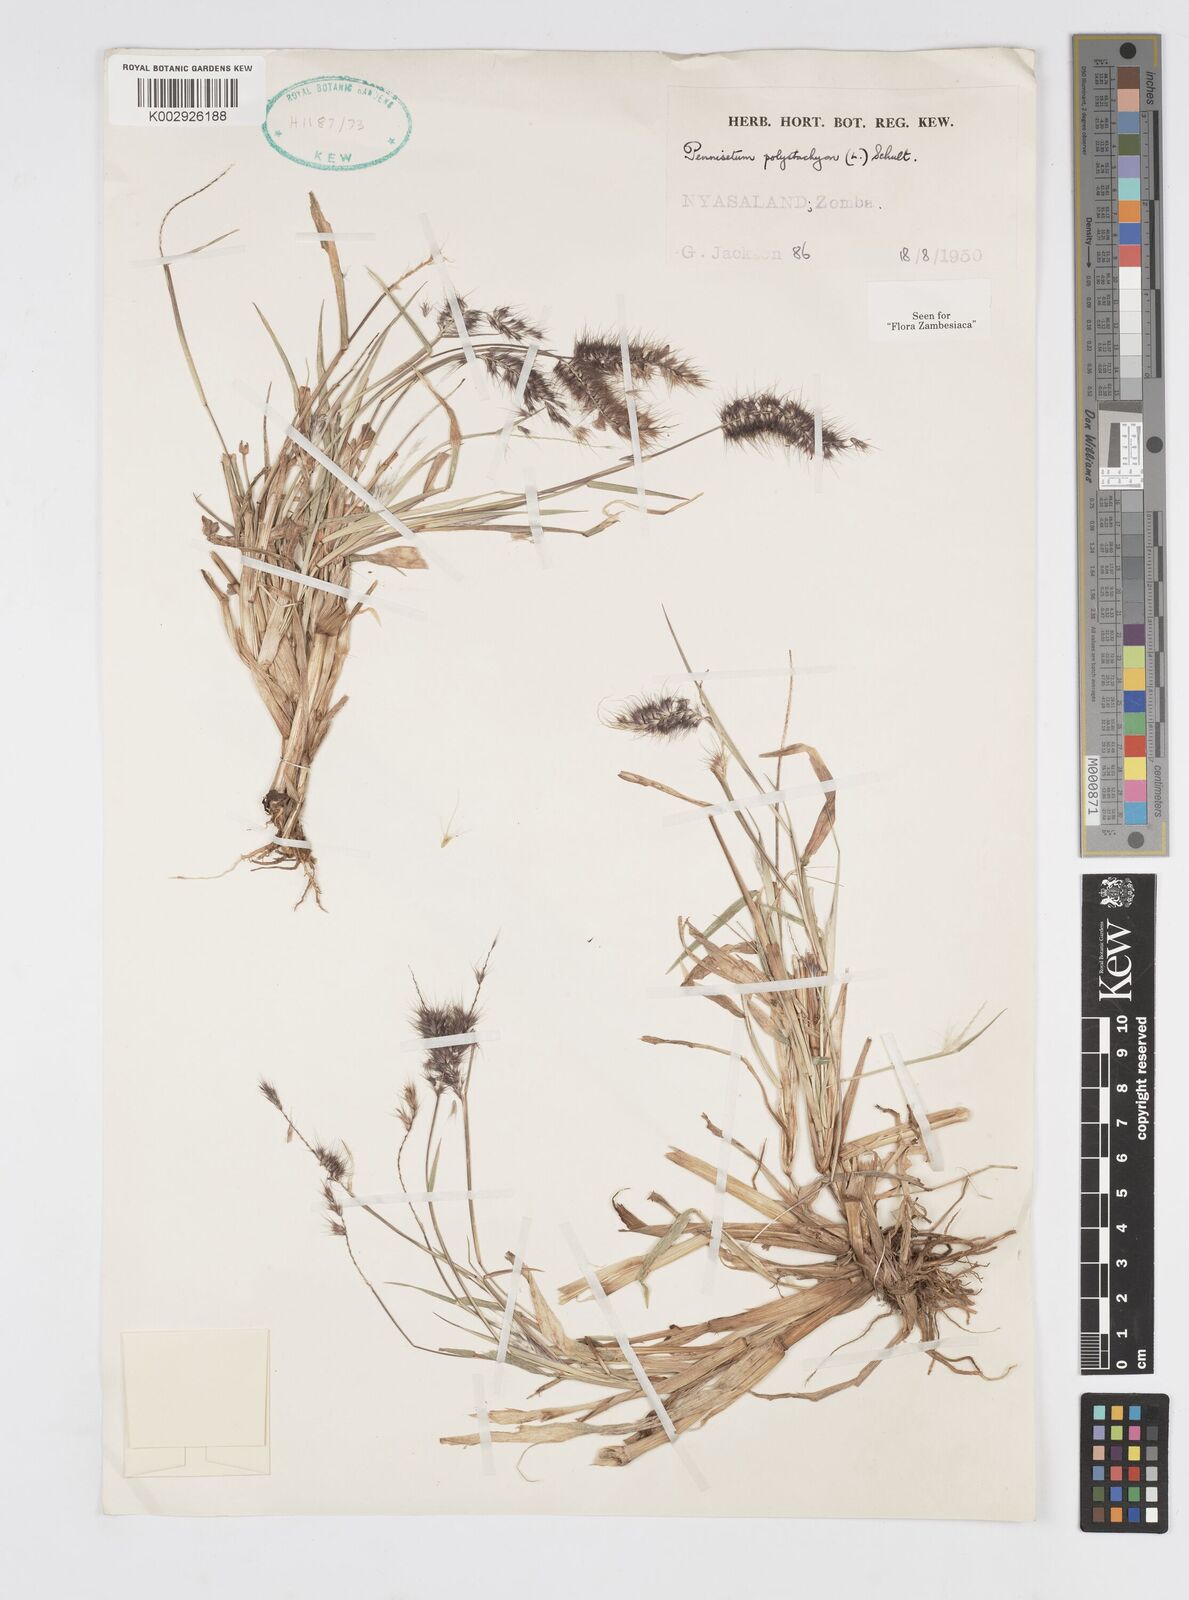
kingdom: Plantae
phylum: Tracheophyta
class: Liliopsida
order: Poales
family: Poaceae
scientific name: Poaceae
